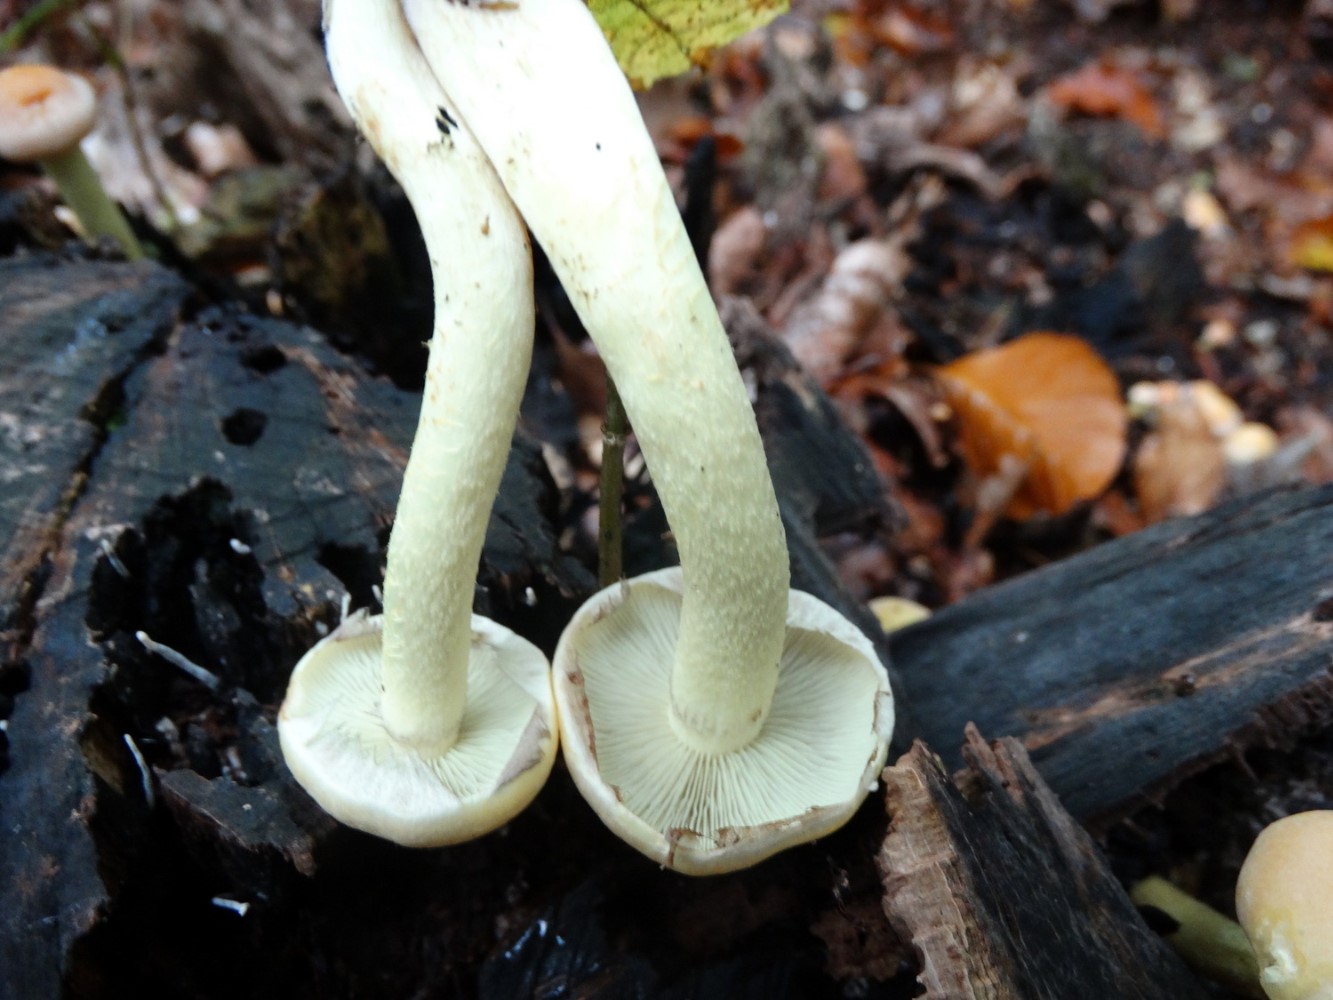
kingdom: Fungi
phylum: Basidiomycota
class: Agaricomycetes
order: Agaricales
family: Strophariaceae
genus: Hypholoma
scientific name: Hypholoma fasciculare
